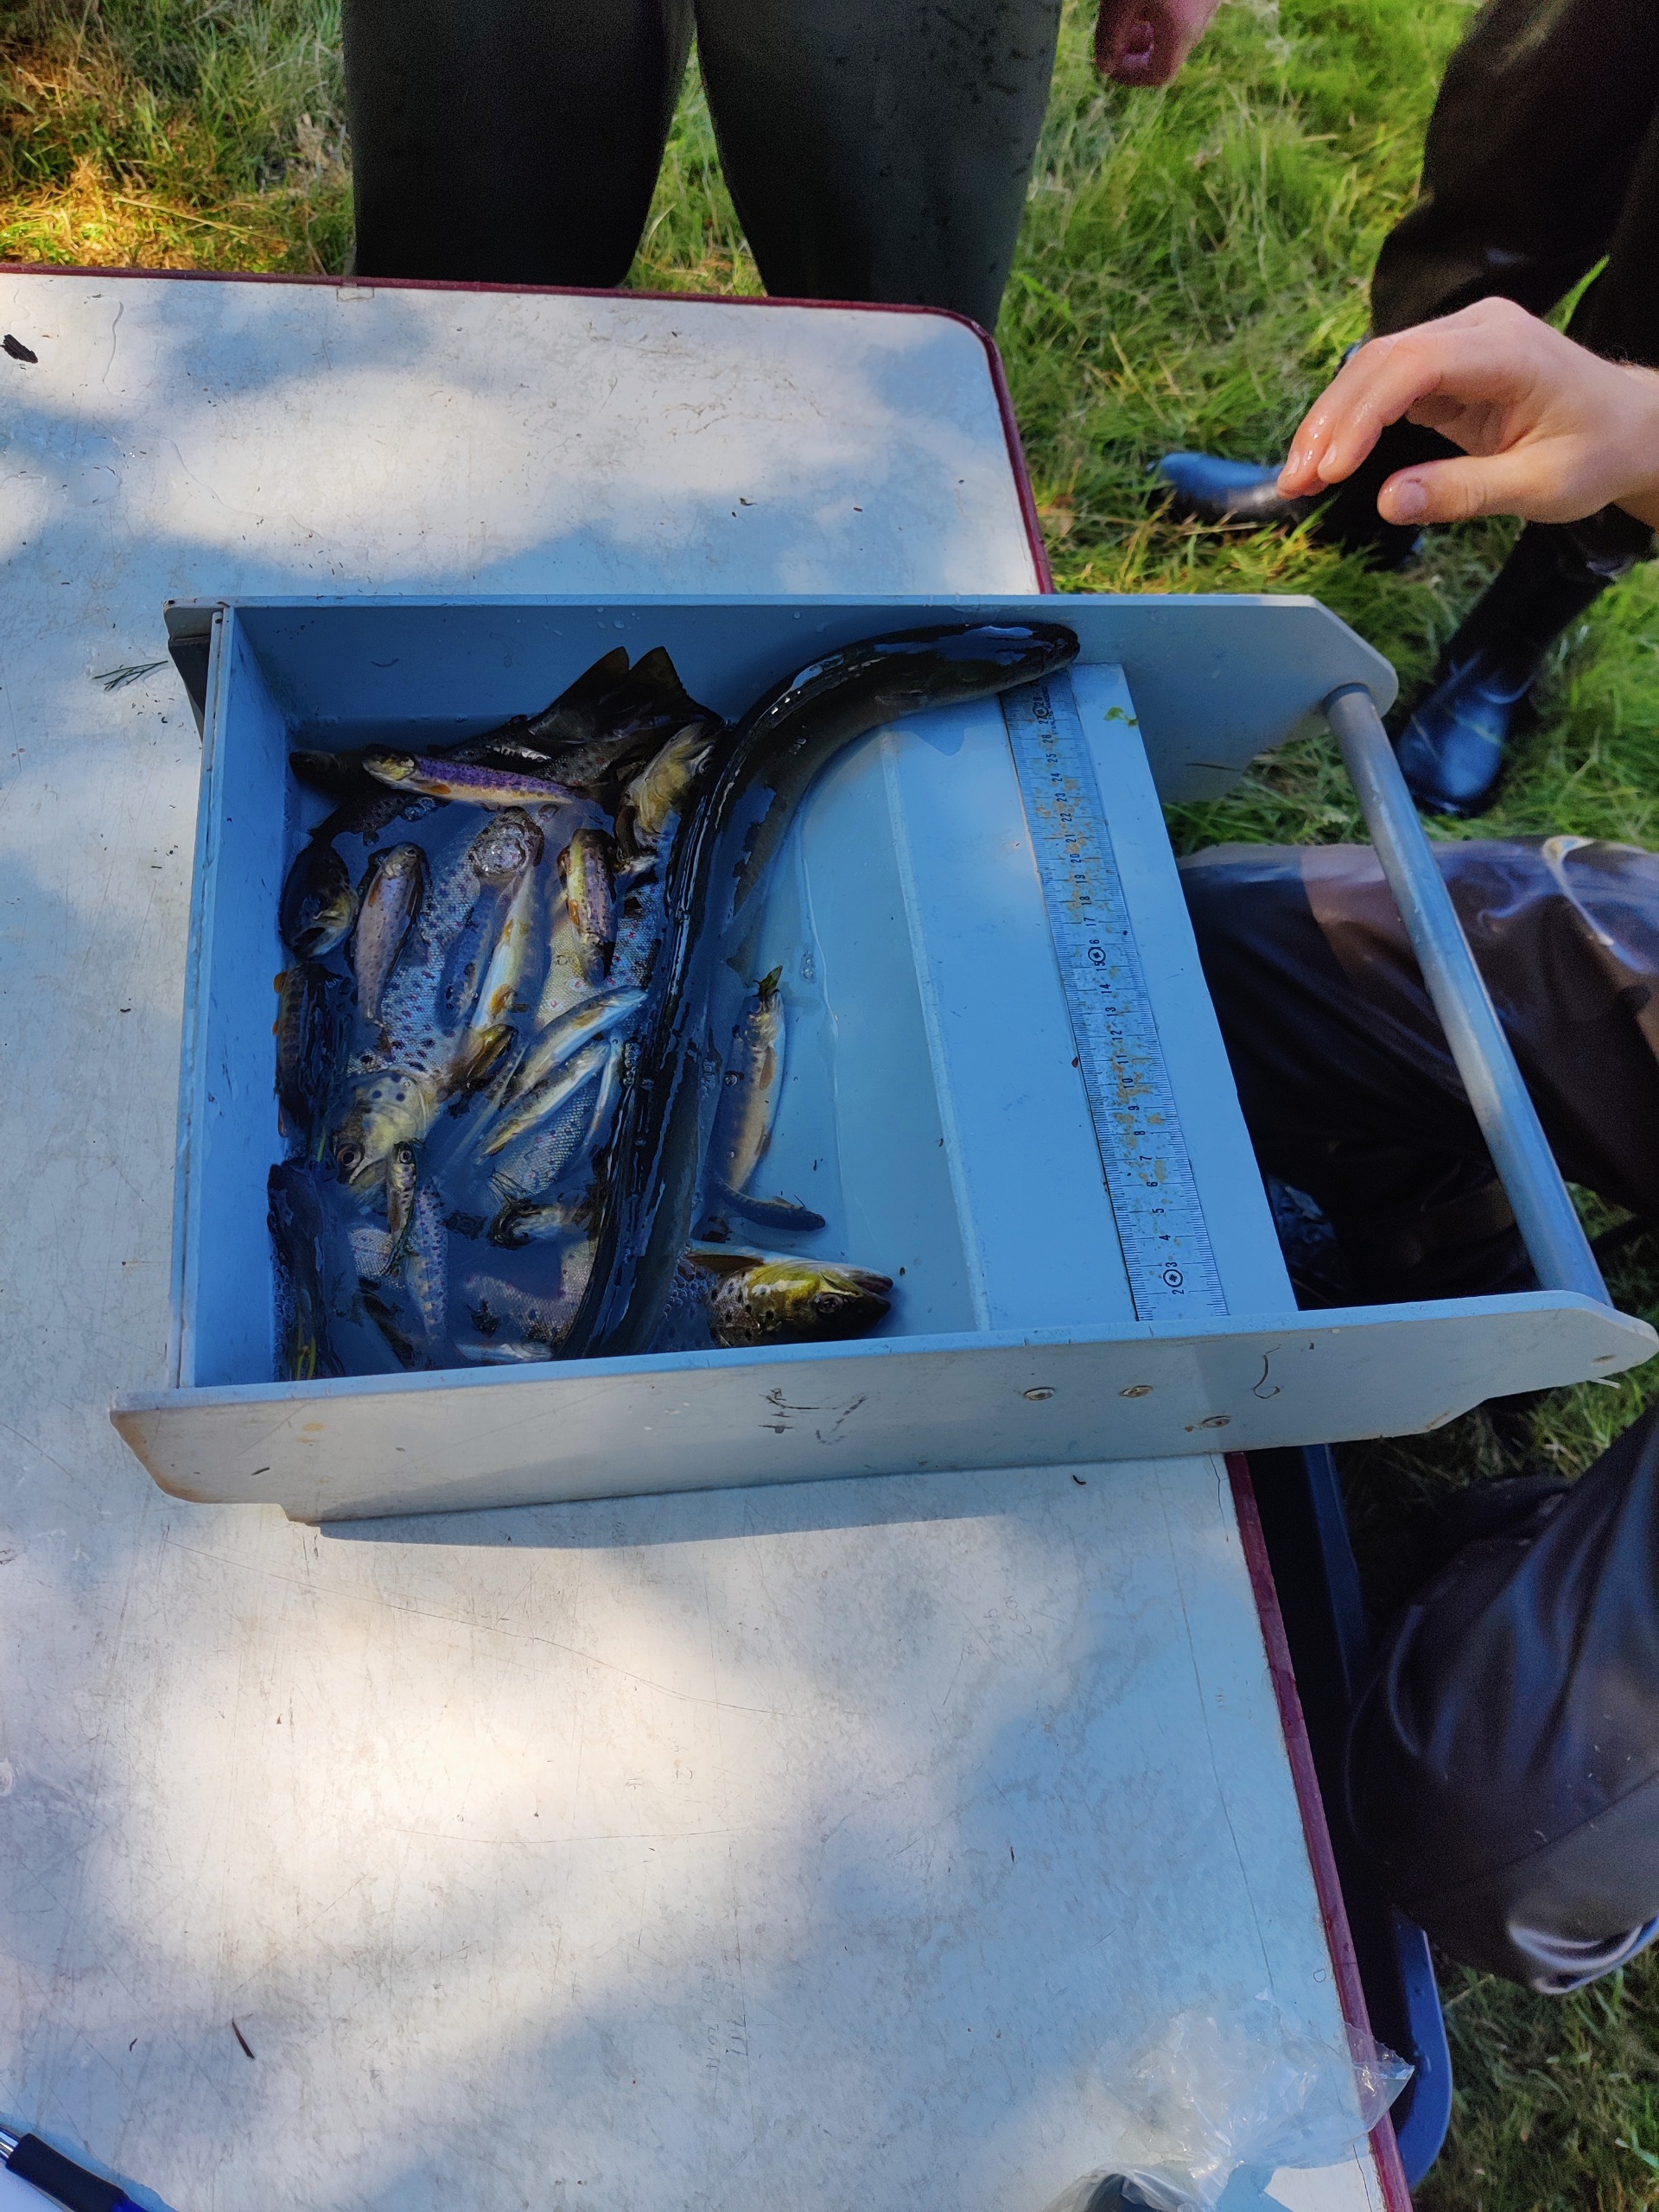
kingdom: Animalia
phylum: Chordata
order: Anguilliformes
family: Anguillidae
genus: Anguilla
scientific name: Anguilla anguilla
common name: Europæisk ål
